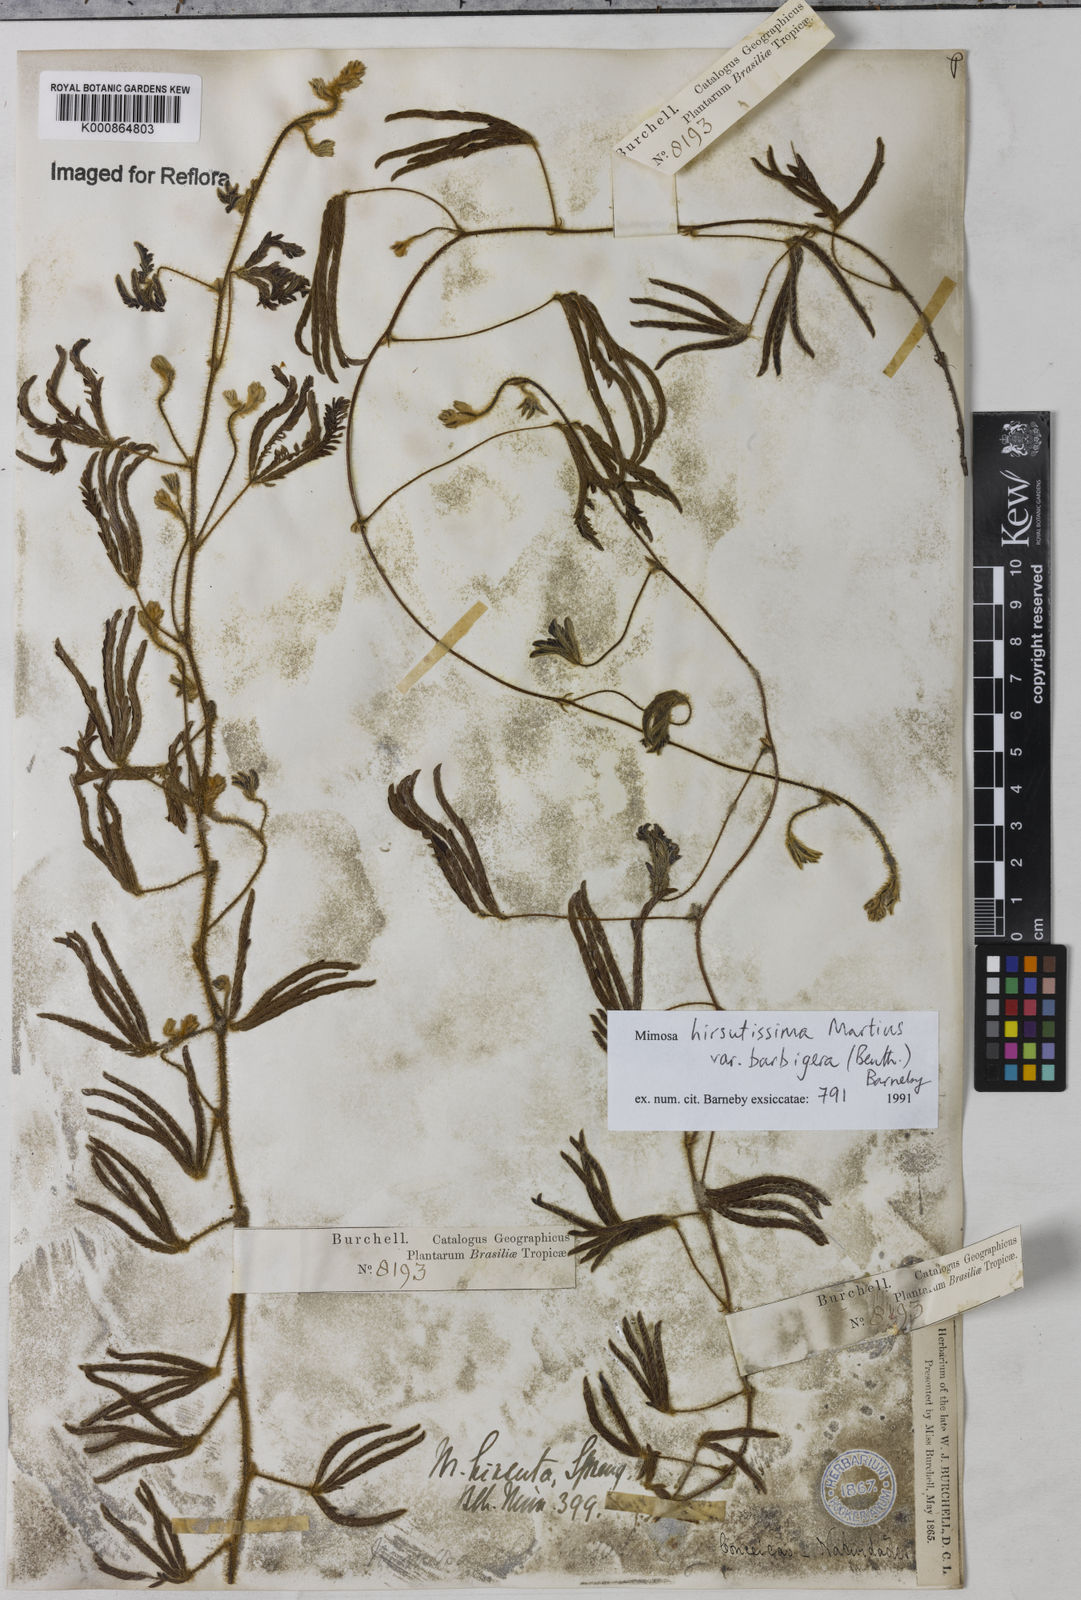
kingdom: Plantae
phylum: Tracheophyta
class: Magnoliopsida
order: Fabales
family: Fabaceae
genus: Mimosa
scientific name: Mimosa hirsutissima
